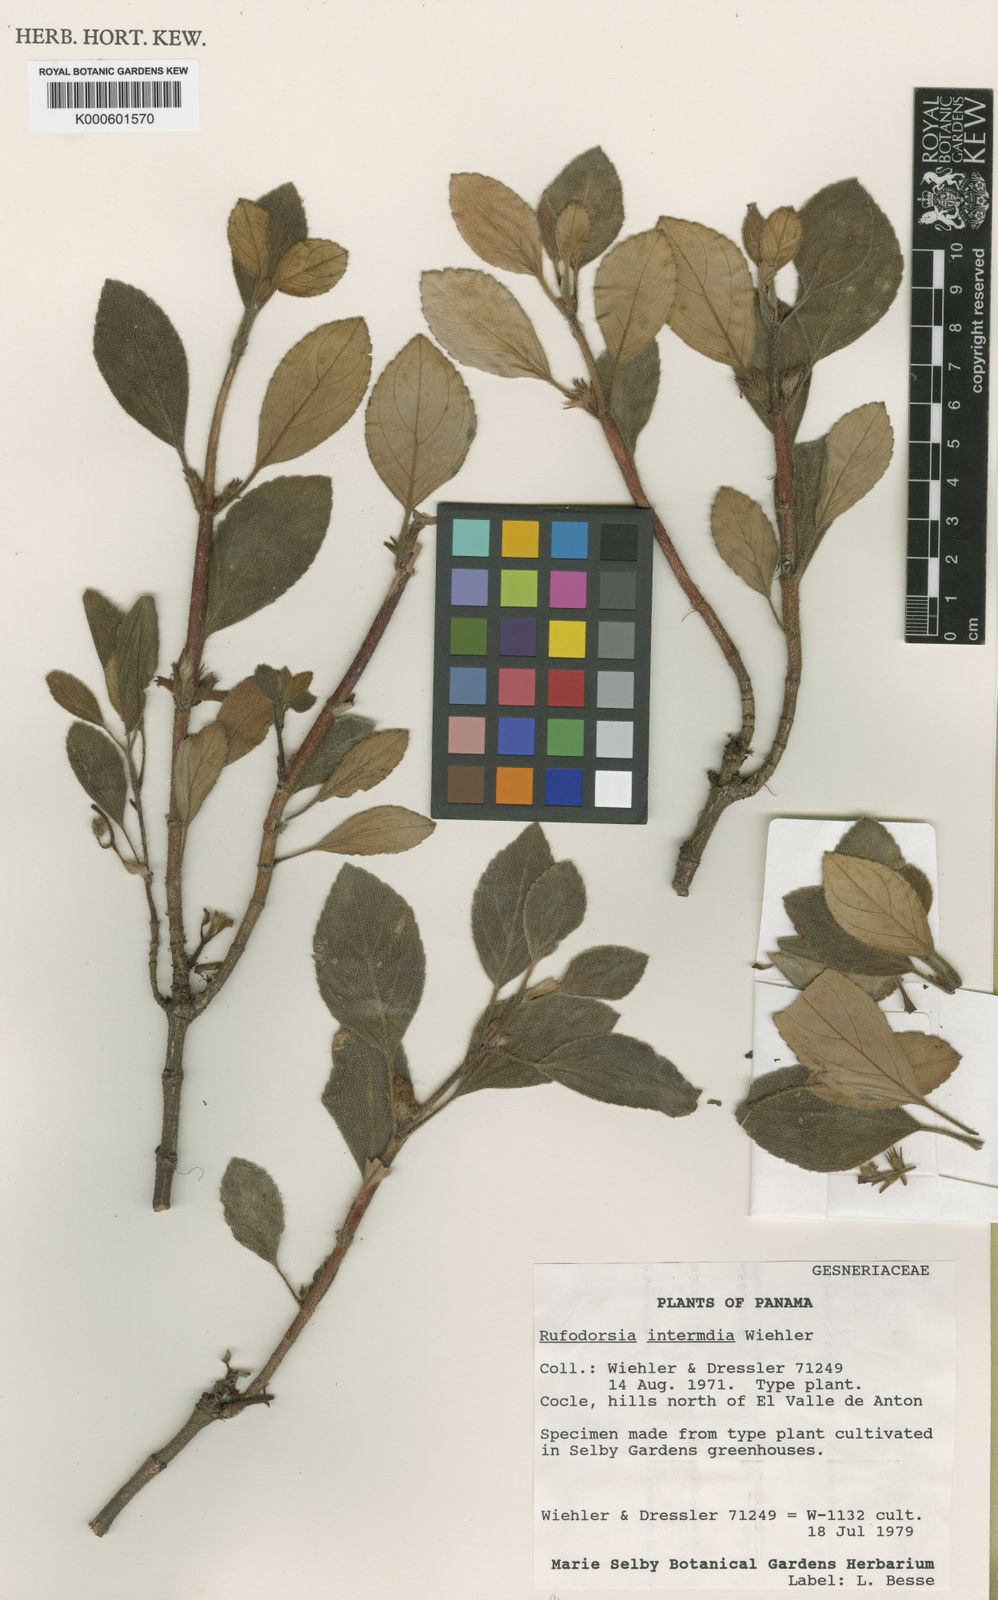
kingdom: Plantae
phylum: Tracheophyta
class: Magnoliopsida
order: Lamiales
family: Gesneriaceae
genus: Rufodorsia
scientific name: Rufodorsia congestiflora
